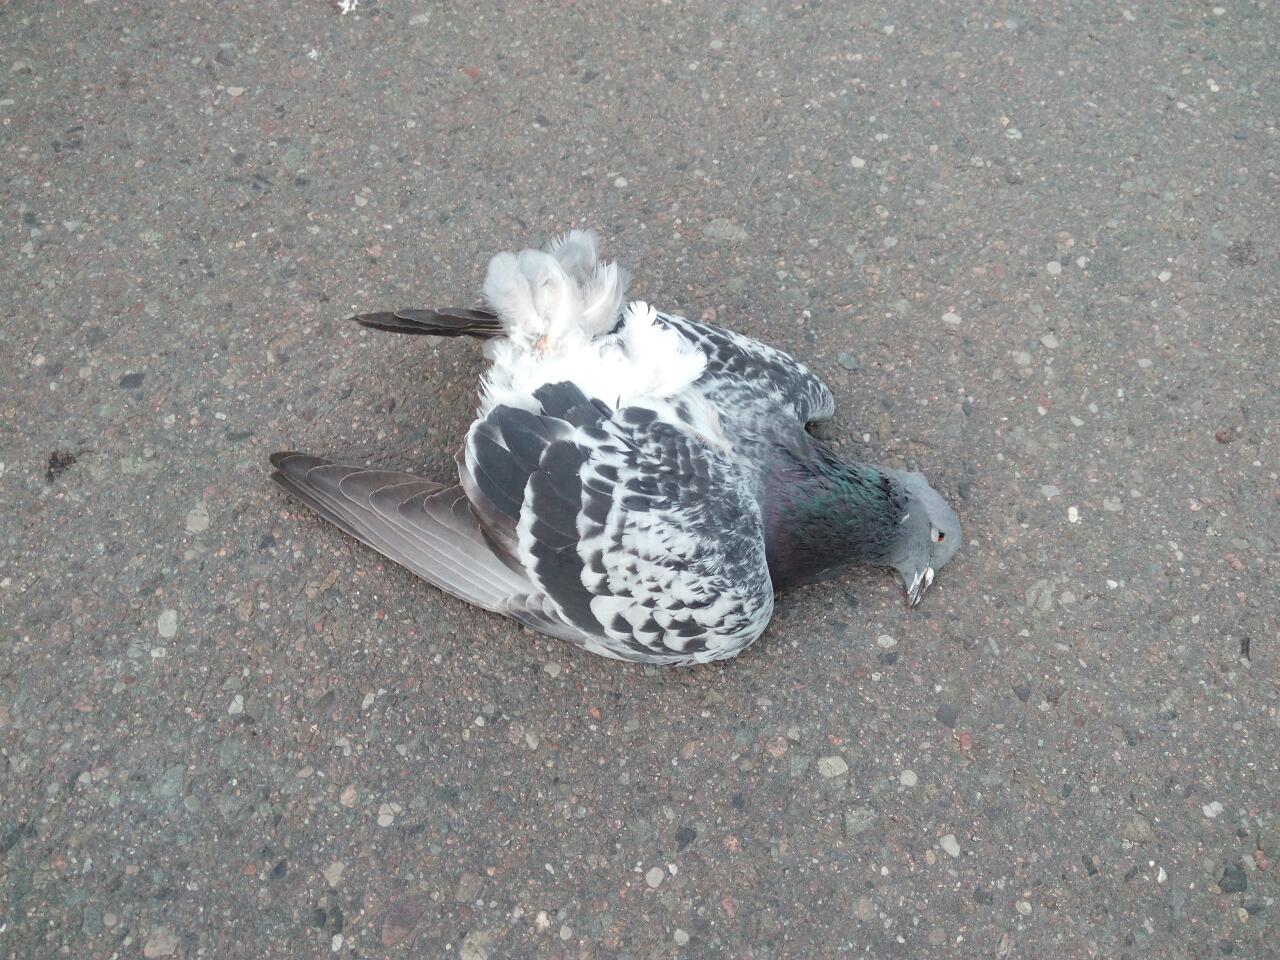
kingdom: Animalia
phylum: Chordata
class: Aves
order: Columbiformes
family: Columbidae
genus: Columba
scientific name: Columba livia
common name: Rock pigeon
